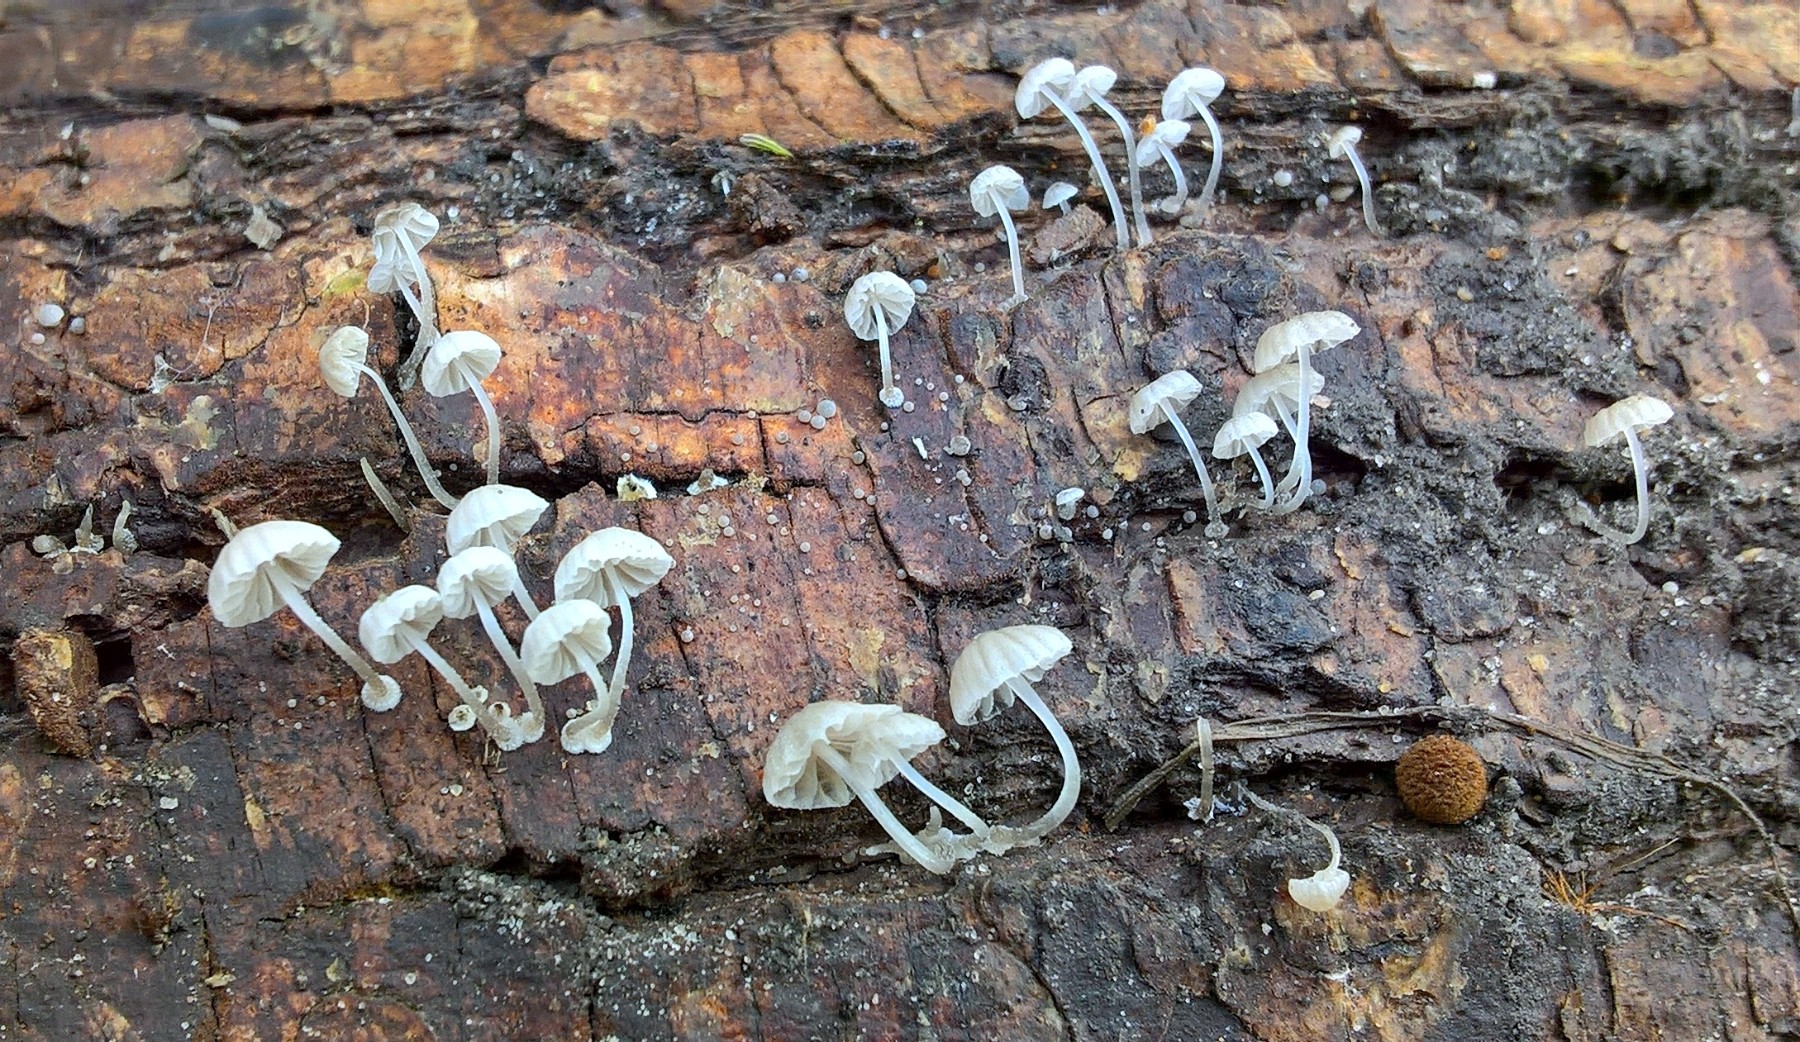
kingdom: Fungi
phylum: Basidiomycota
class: Agaricomycetes
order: Agaricales
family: Mycenaceae
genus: Mycena
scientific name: Mycena clavularis
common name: dunskivet huesvamp
